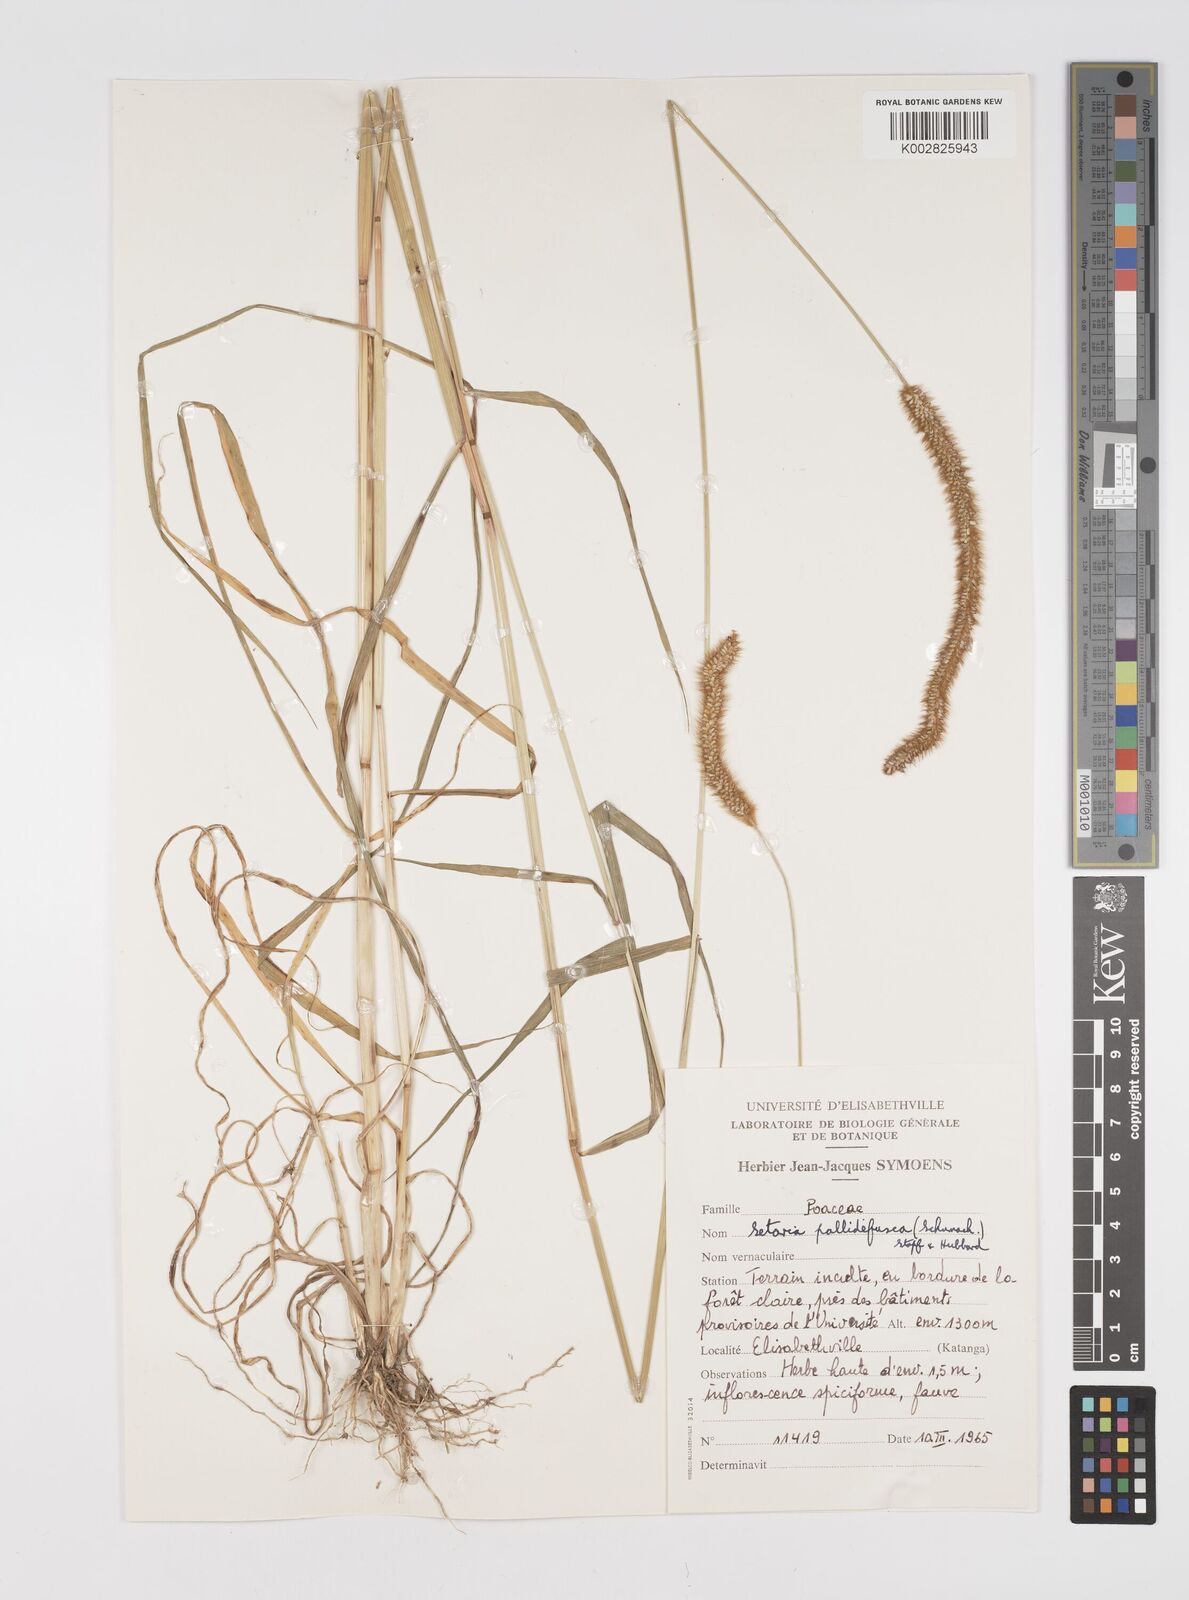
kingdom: Plantae
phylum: Tracheophyta
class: Liliopsida
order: Poales
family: Poaceae
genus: Setaria
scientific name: Setaria pumila
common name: Yellow bristle-grass
